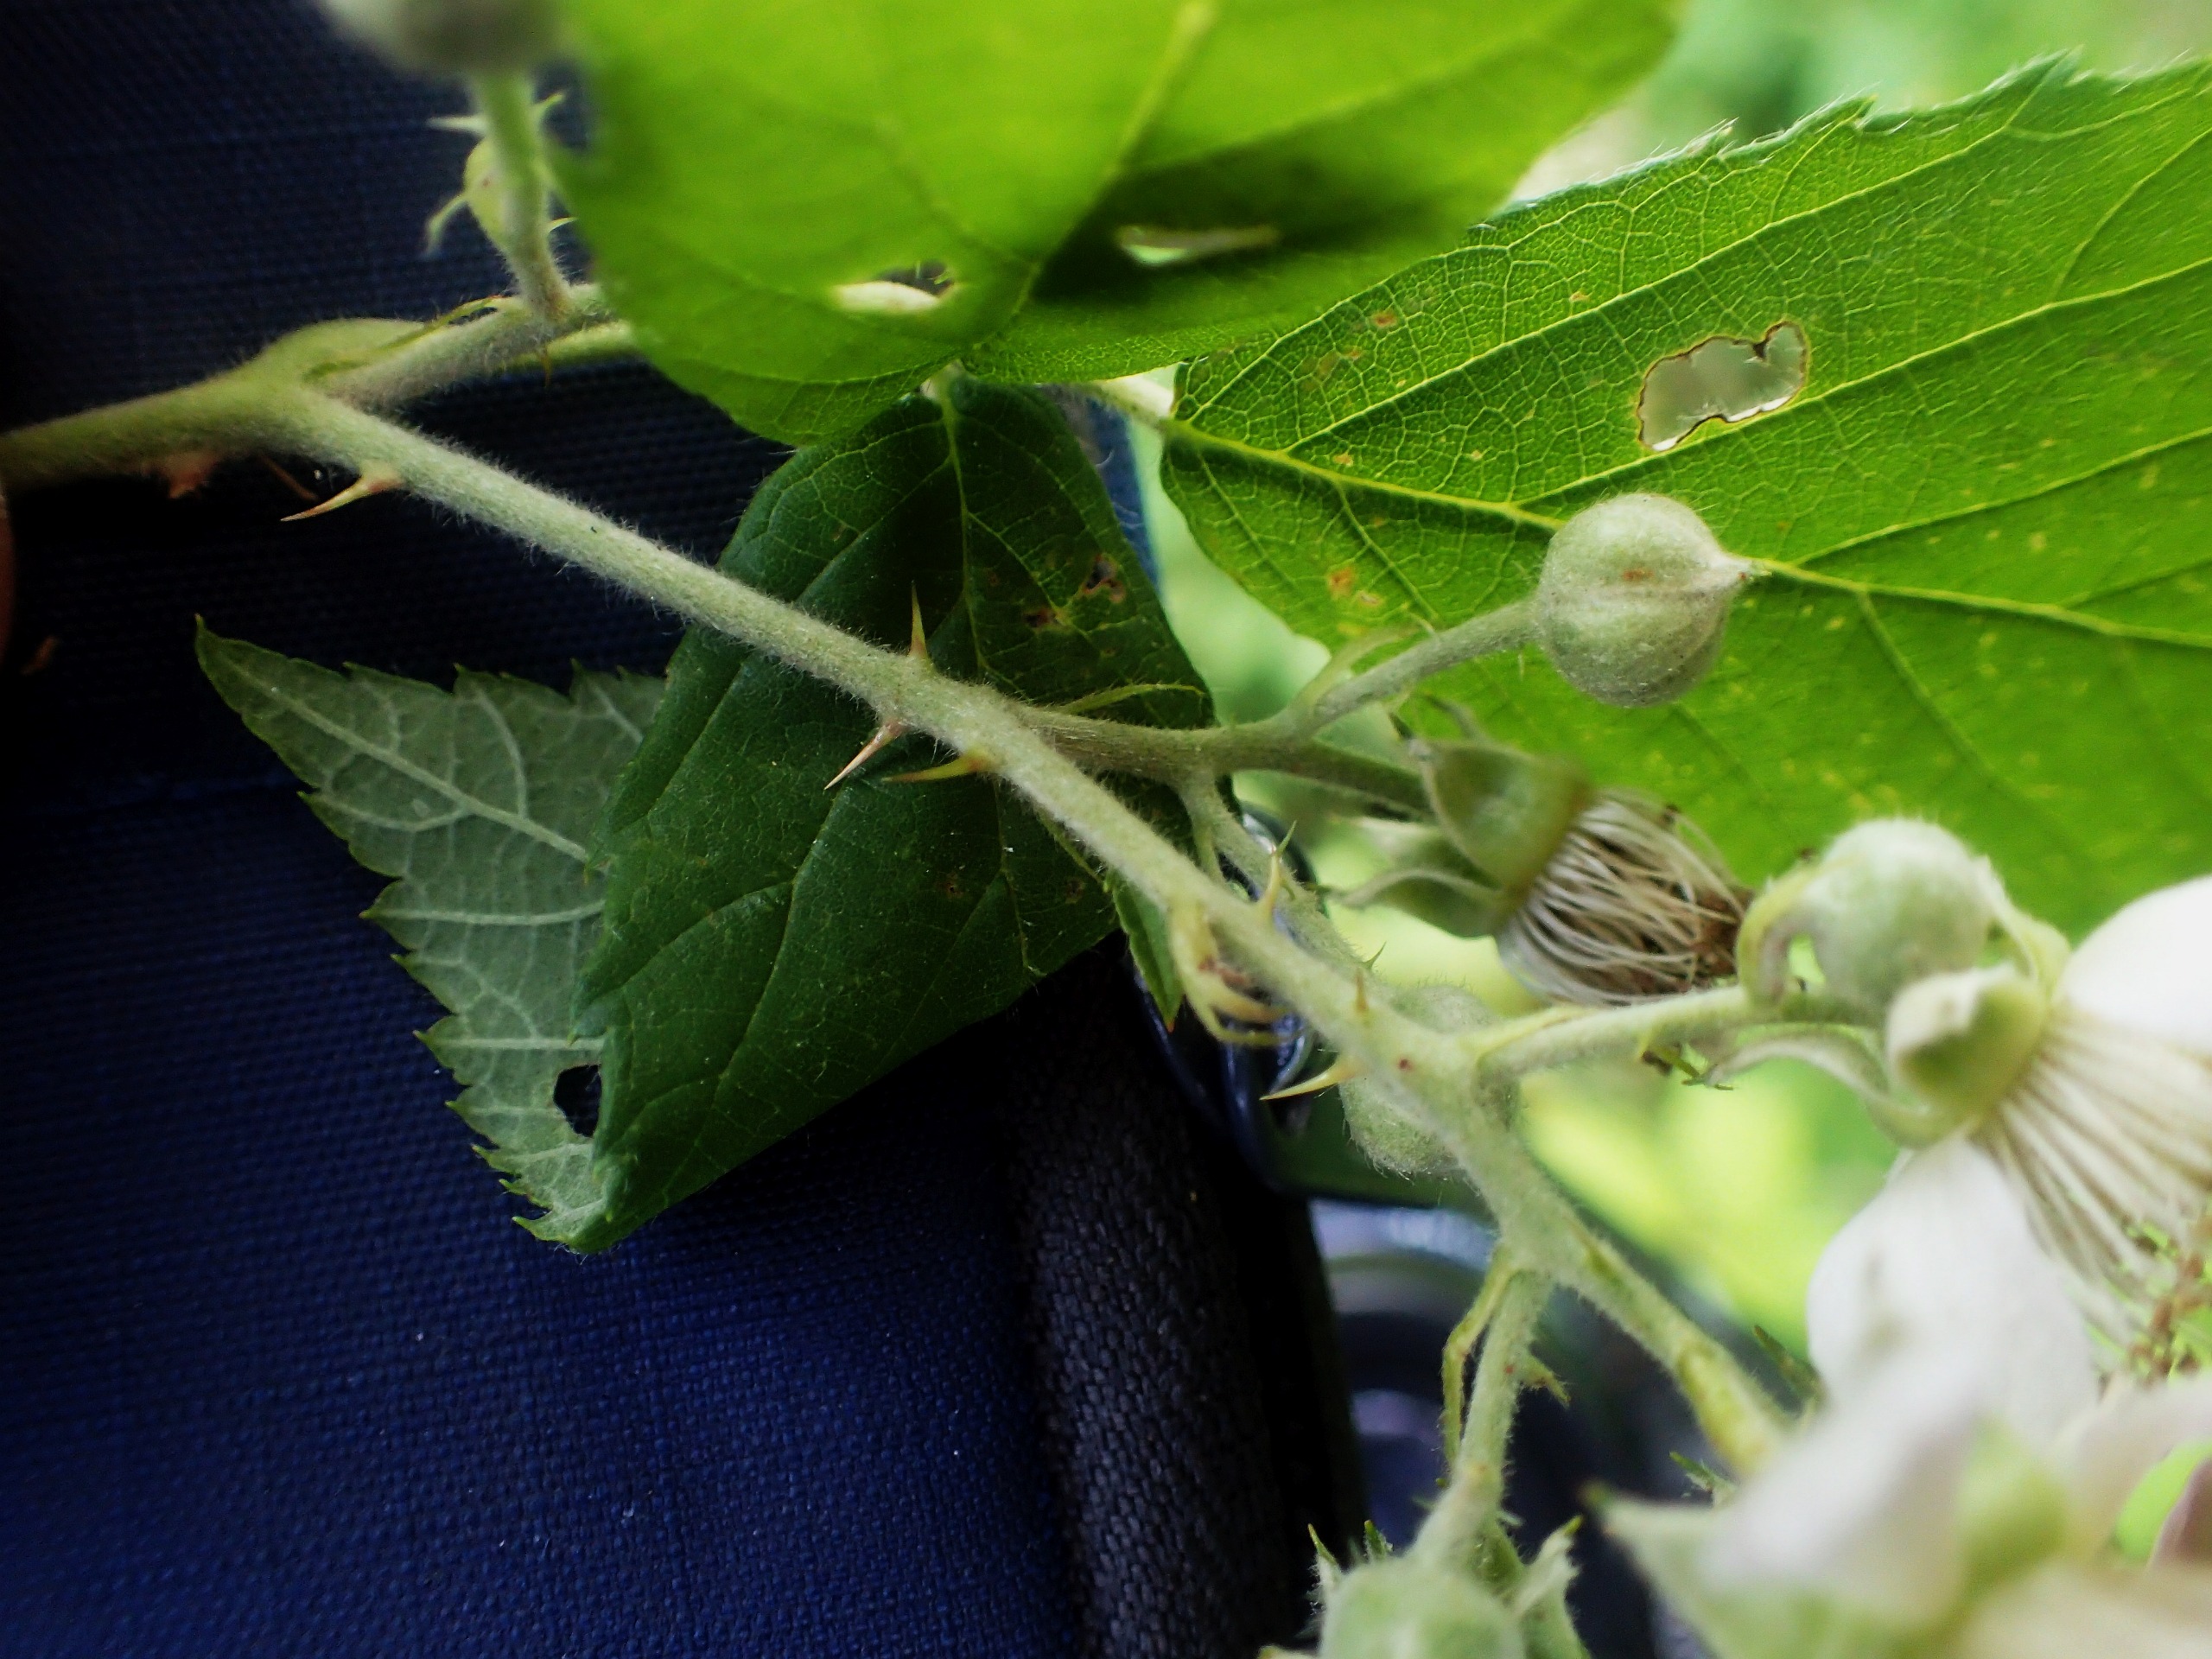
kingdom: Plantae
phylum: Tracheophyta
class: Magnoliopsida
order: Rosales
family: Rosaceae
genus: Rubus
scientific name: Rubus macrophyllus
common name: Storbladet brombær
